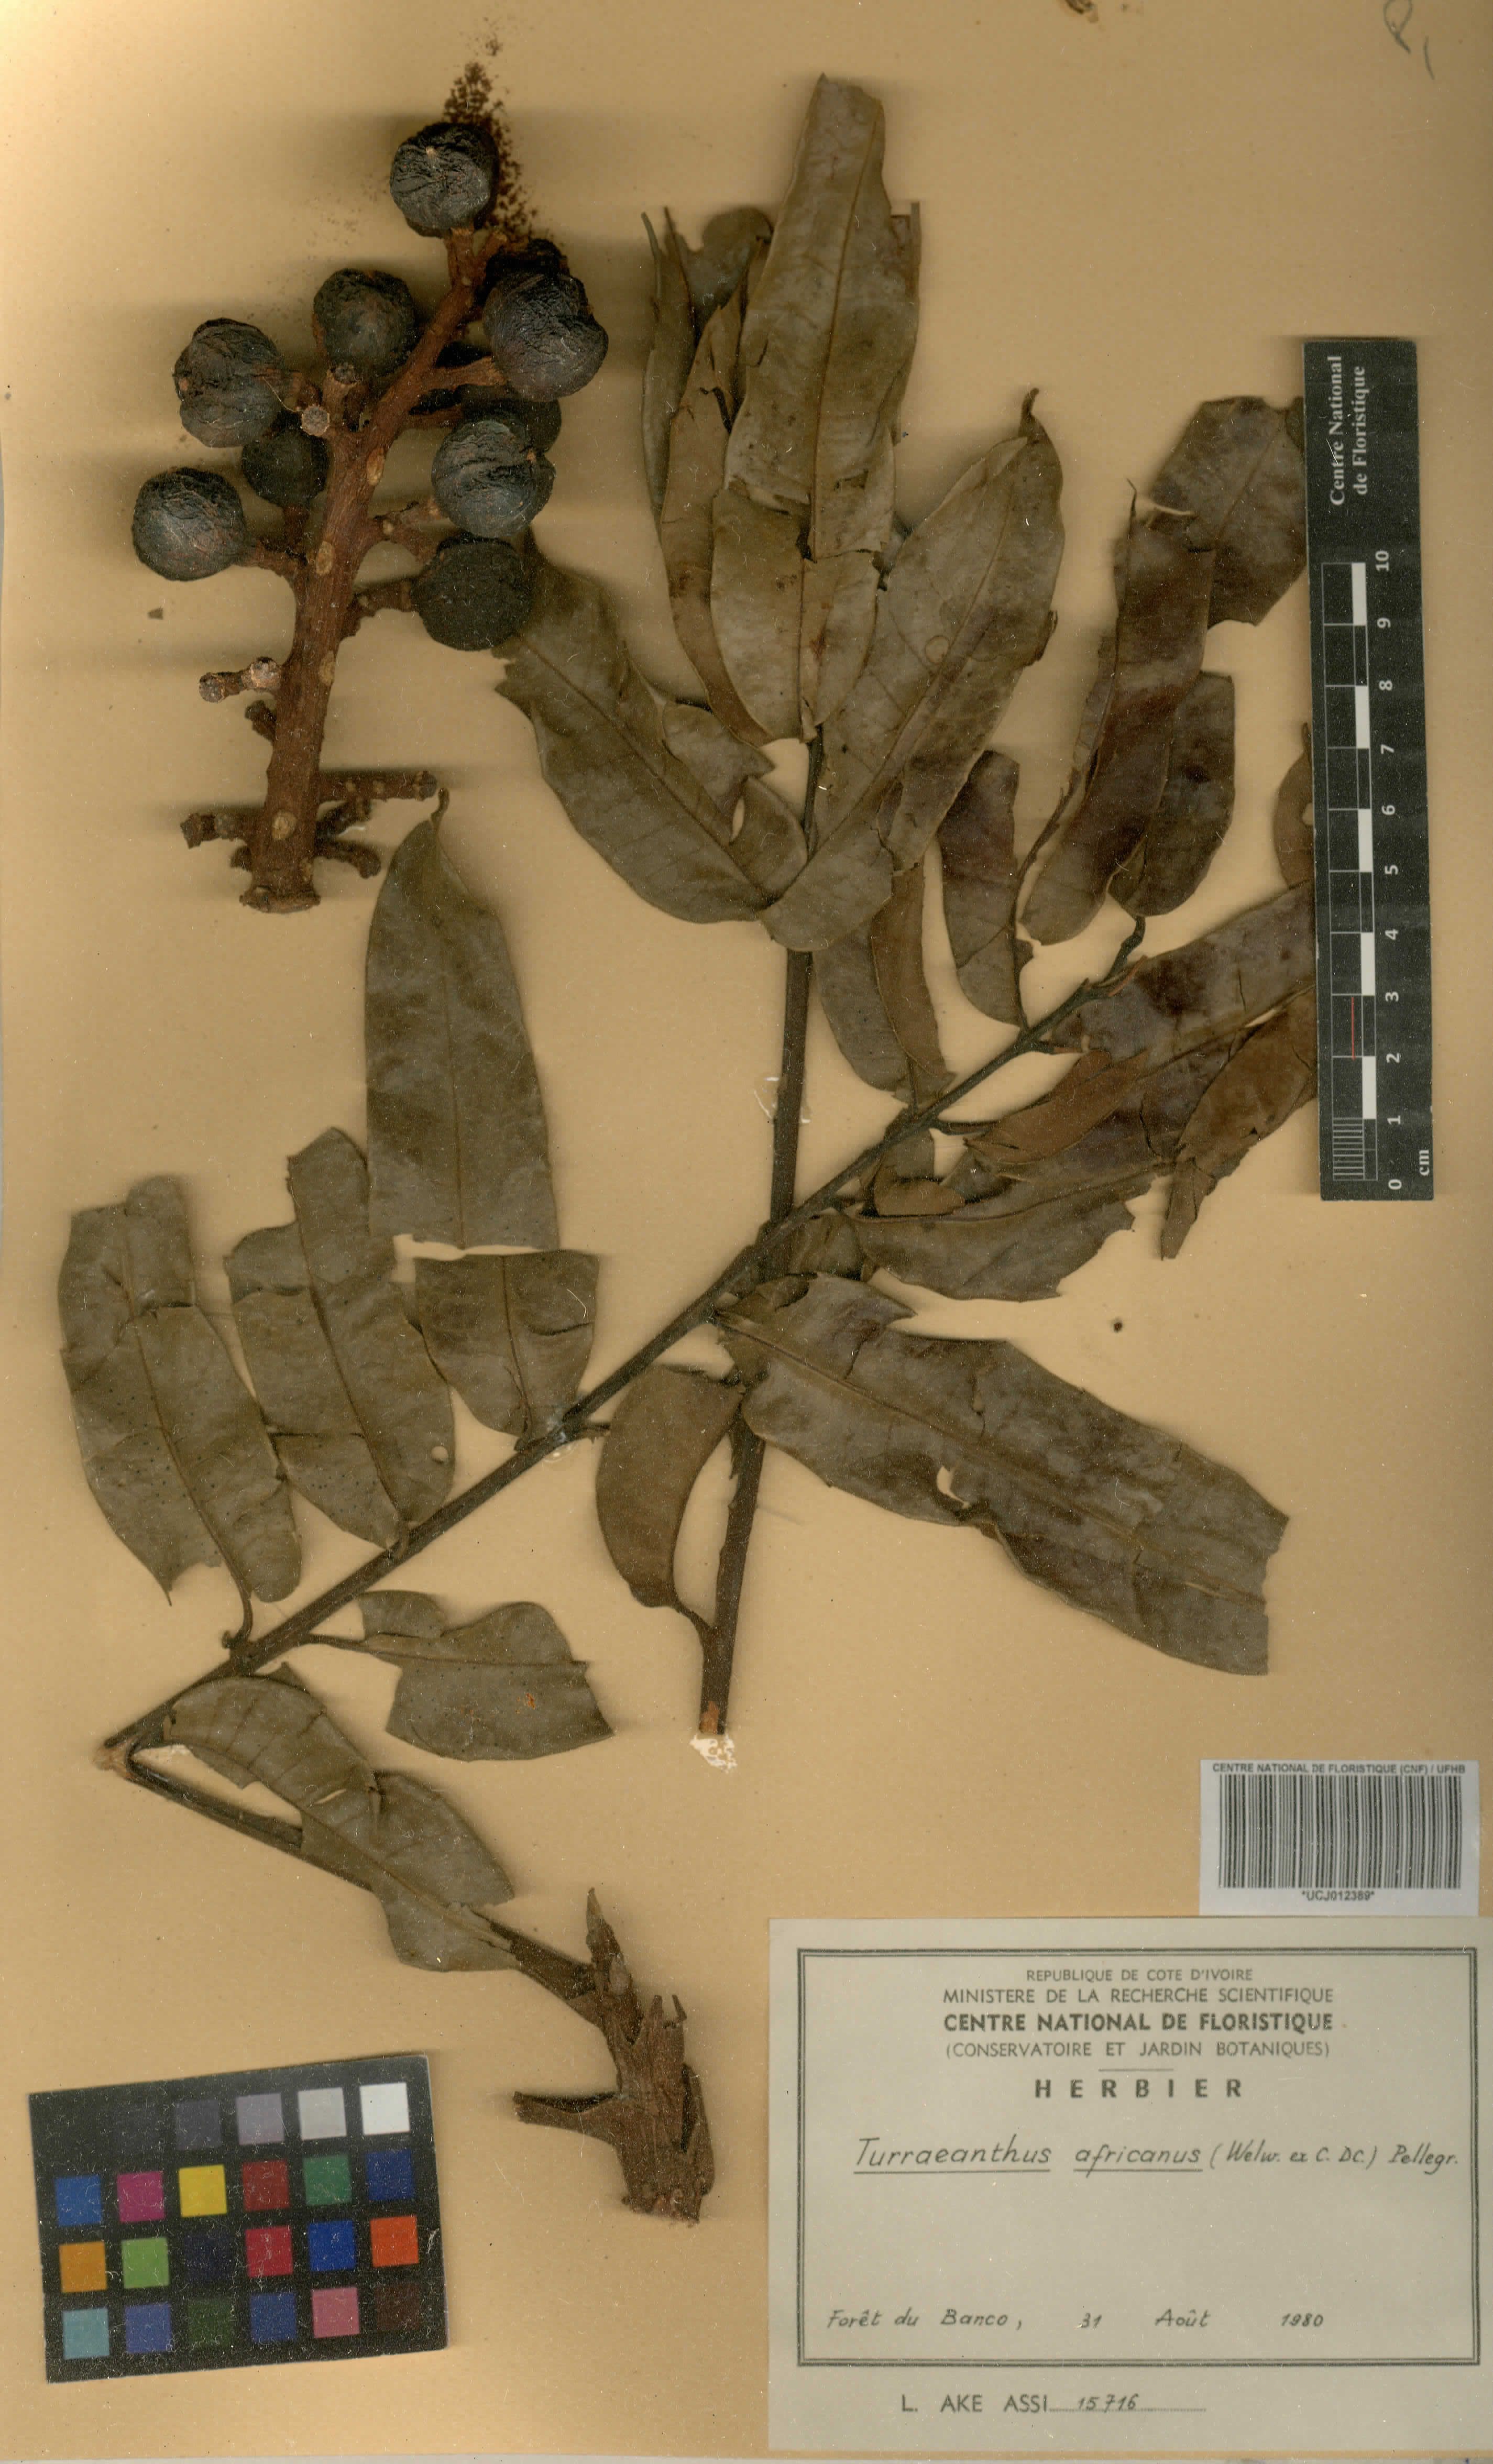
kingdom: Plantae
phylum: Tracheophyta
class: Magnoliopsida
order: Sapindales
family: Meliaceae
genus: Turraeanthus
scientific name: Turraeanthus africanus
